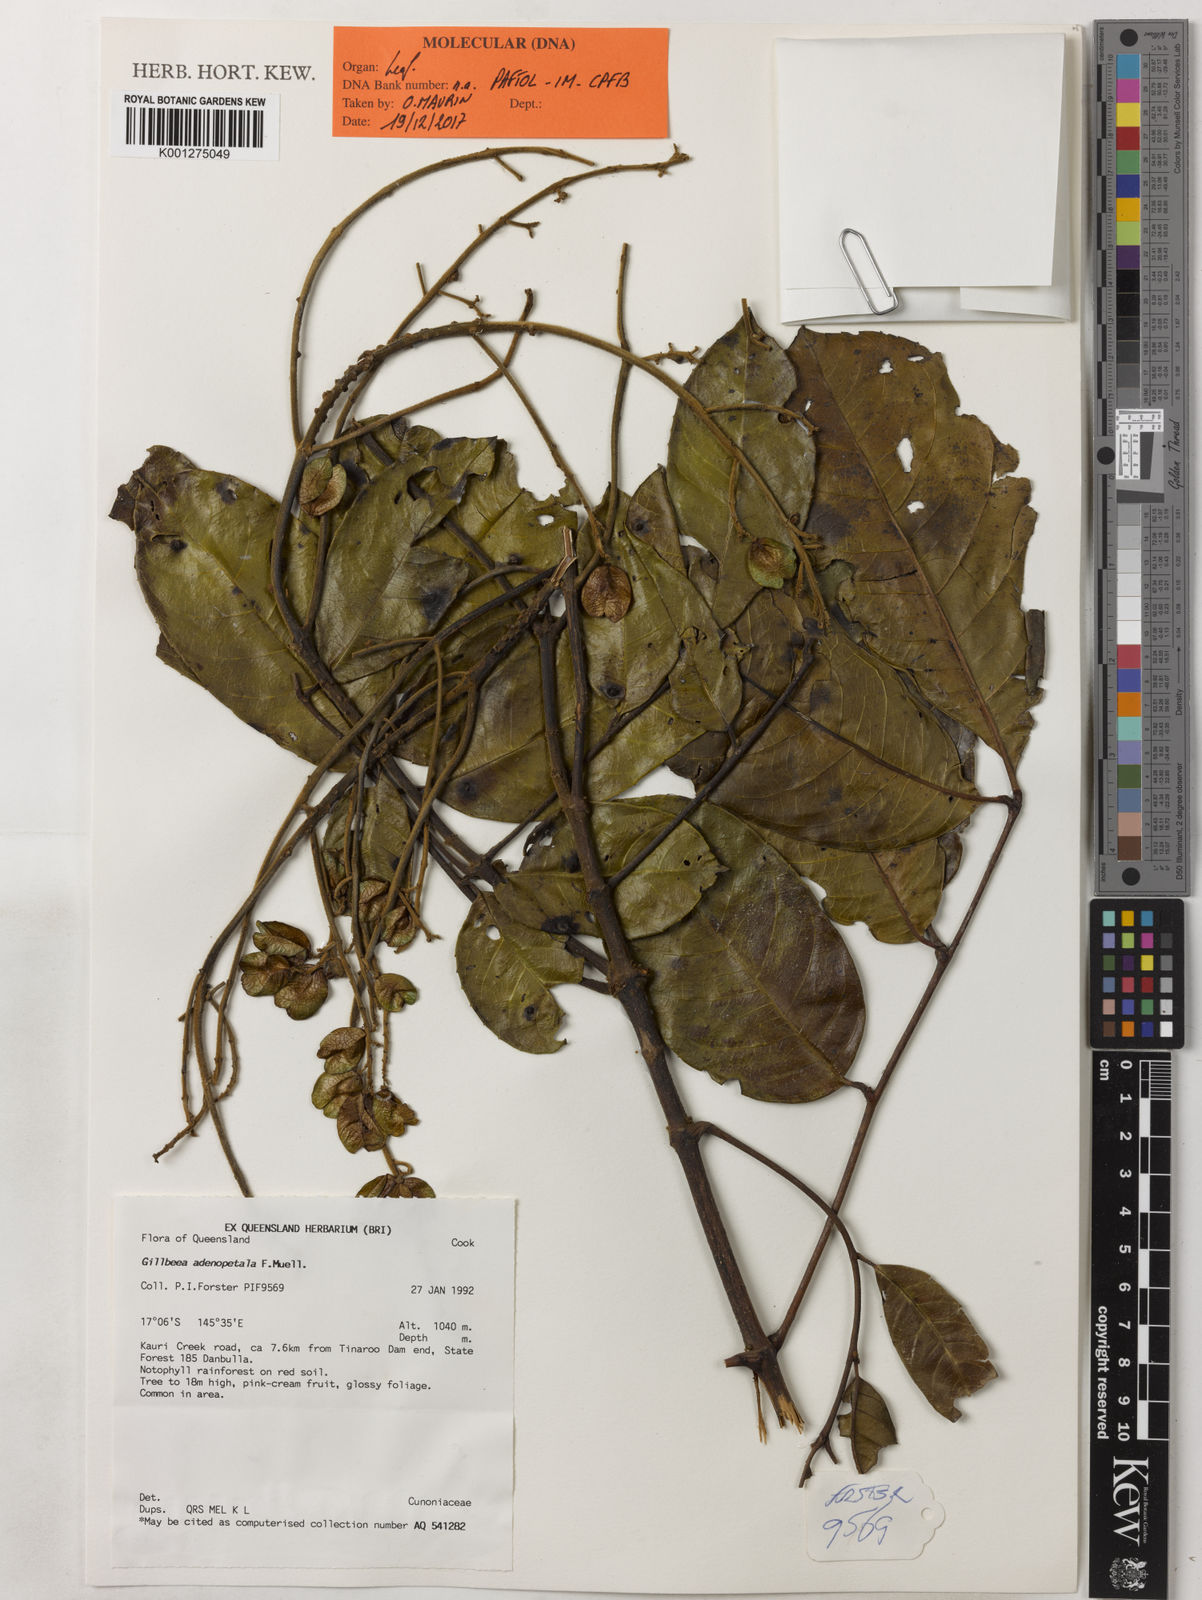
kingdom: Plantae
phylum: Tracheophyta
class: Magnoliopsida
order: Oxalidales
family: Cunoniaceae
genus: Gillbeea
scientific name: Gillbeea adenopetala
